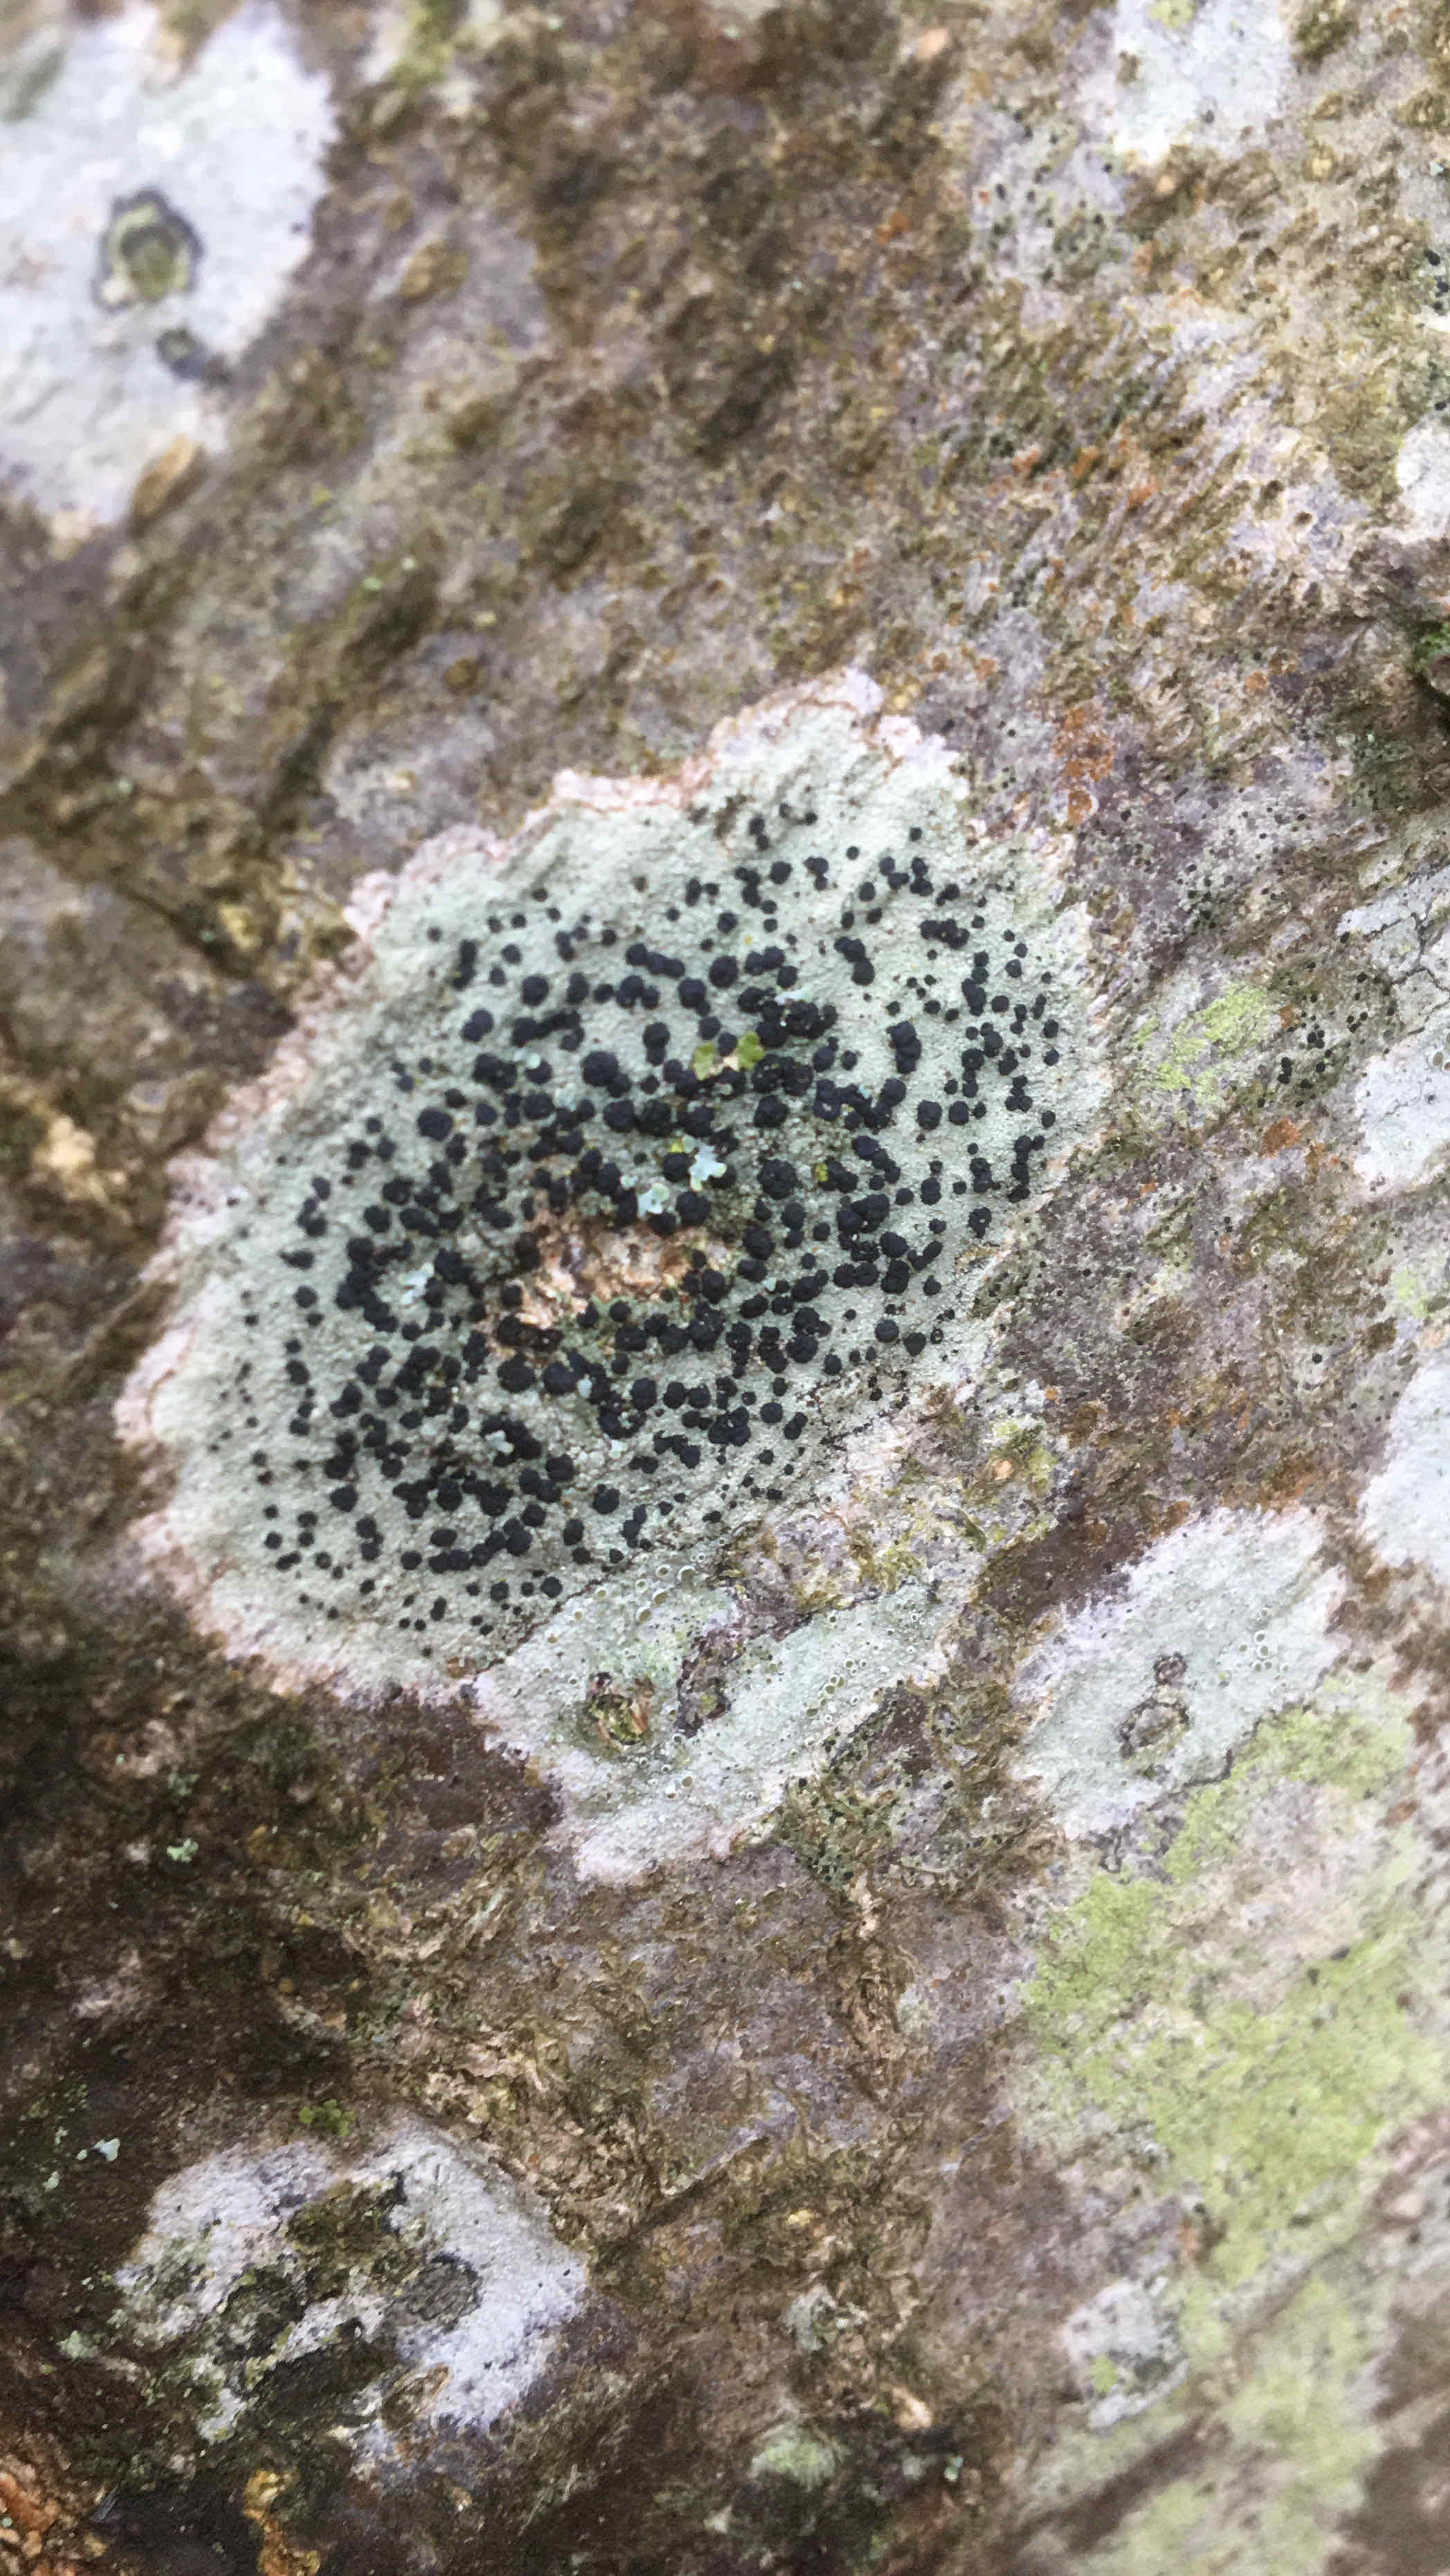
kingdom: Fungi
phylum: Ascomycota
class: Lecanoromycetes
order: Lecanorales
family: Lecanoraceae
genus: Lecidella
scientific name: Lecidella elaeochroma
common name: grågrøn skivelav
